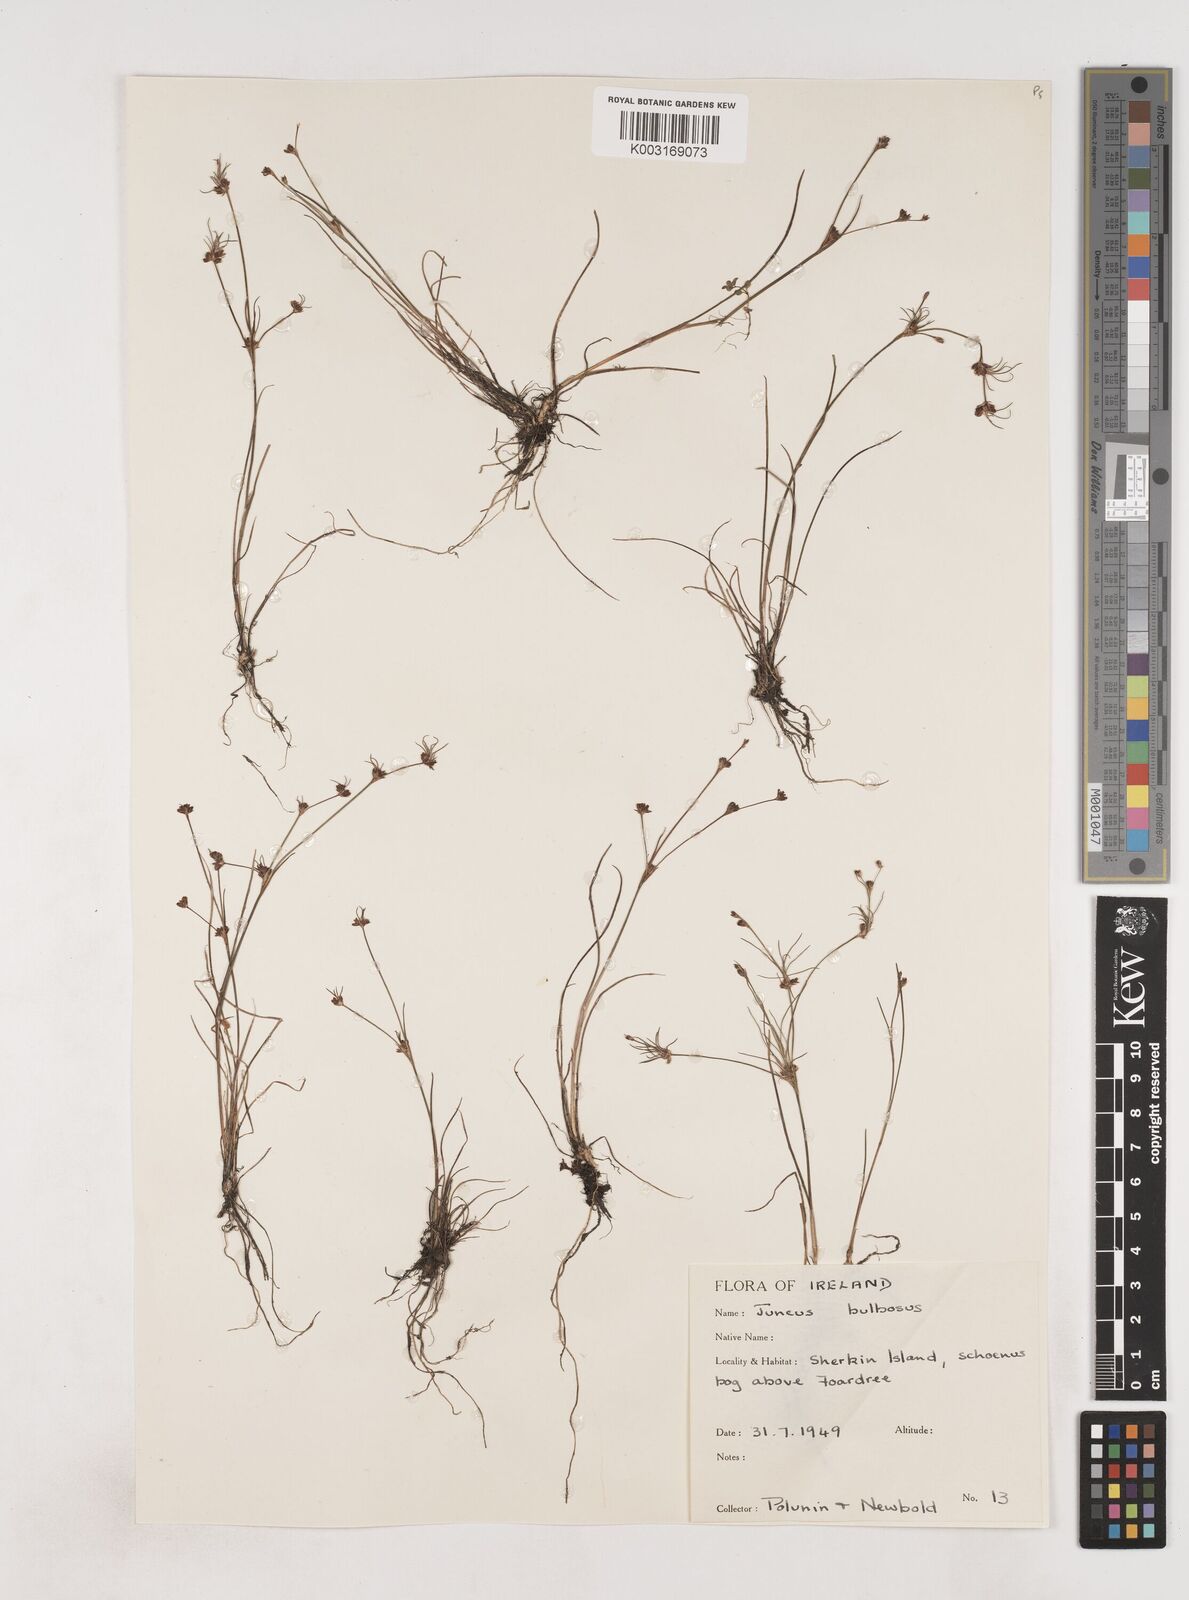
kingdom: Plantae
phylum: Tracheophyta
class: Liliopsida
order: Poales
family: Juncaceae
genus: Juncus
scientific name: Juncus bulbosus
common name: Bulbous rush
